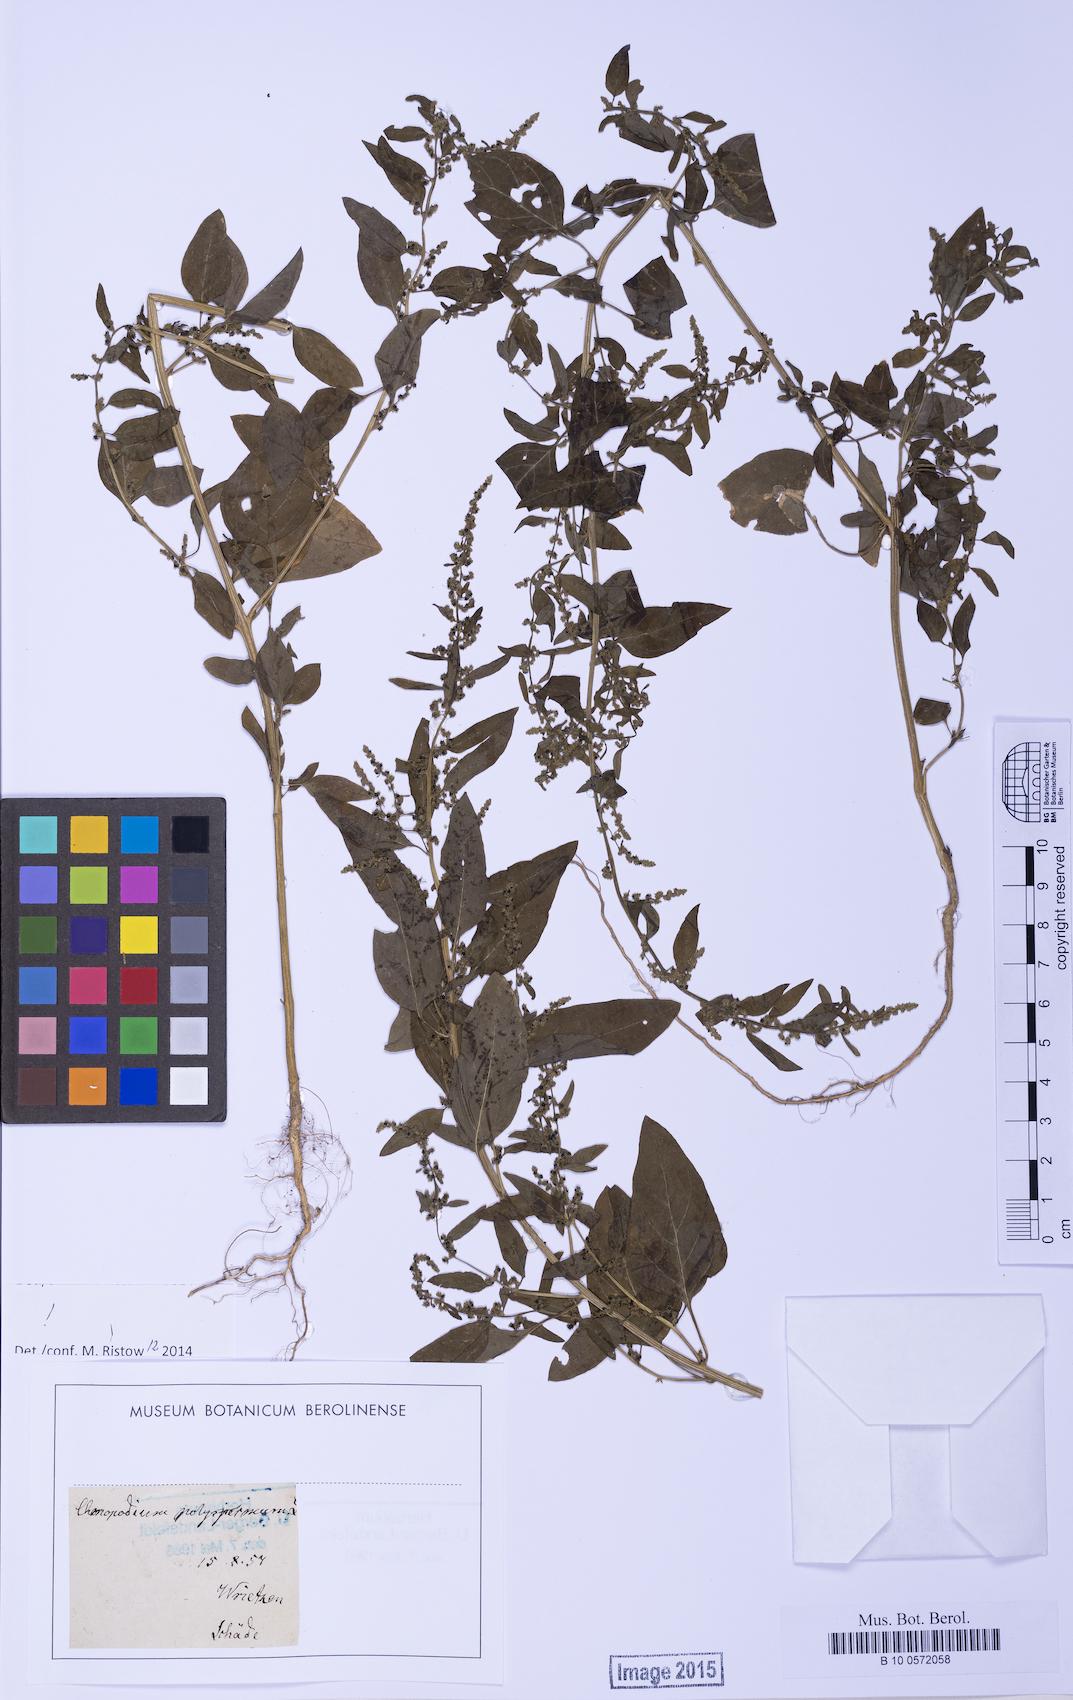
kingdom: Plantae
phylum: Tracheophyta
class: Magnoliopsida
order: Caryophyllales
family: Amaranthaceae
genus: Lipandra
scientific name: Lipandra polysperma
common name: Many-seed goosefoot
